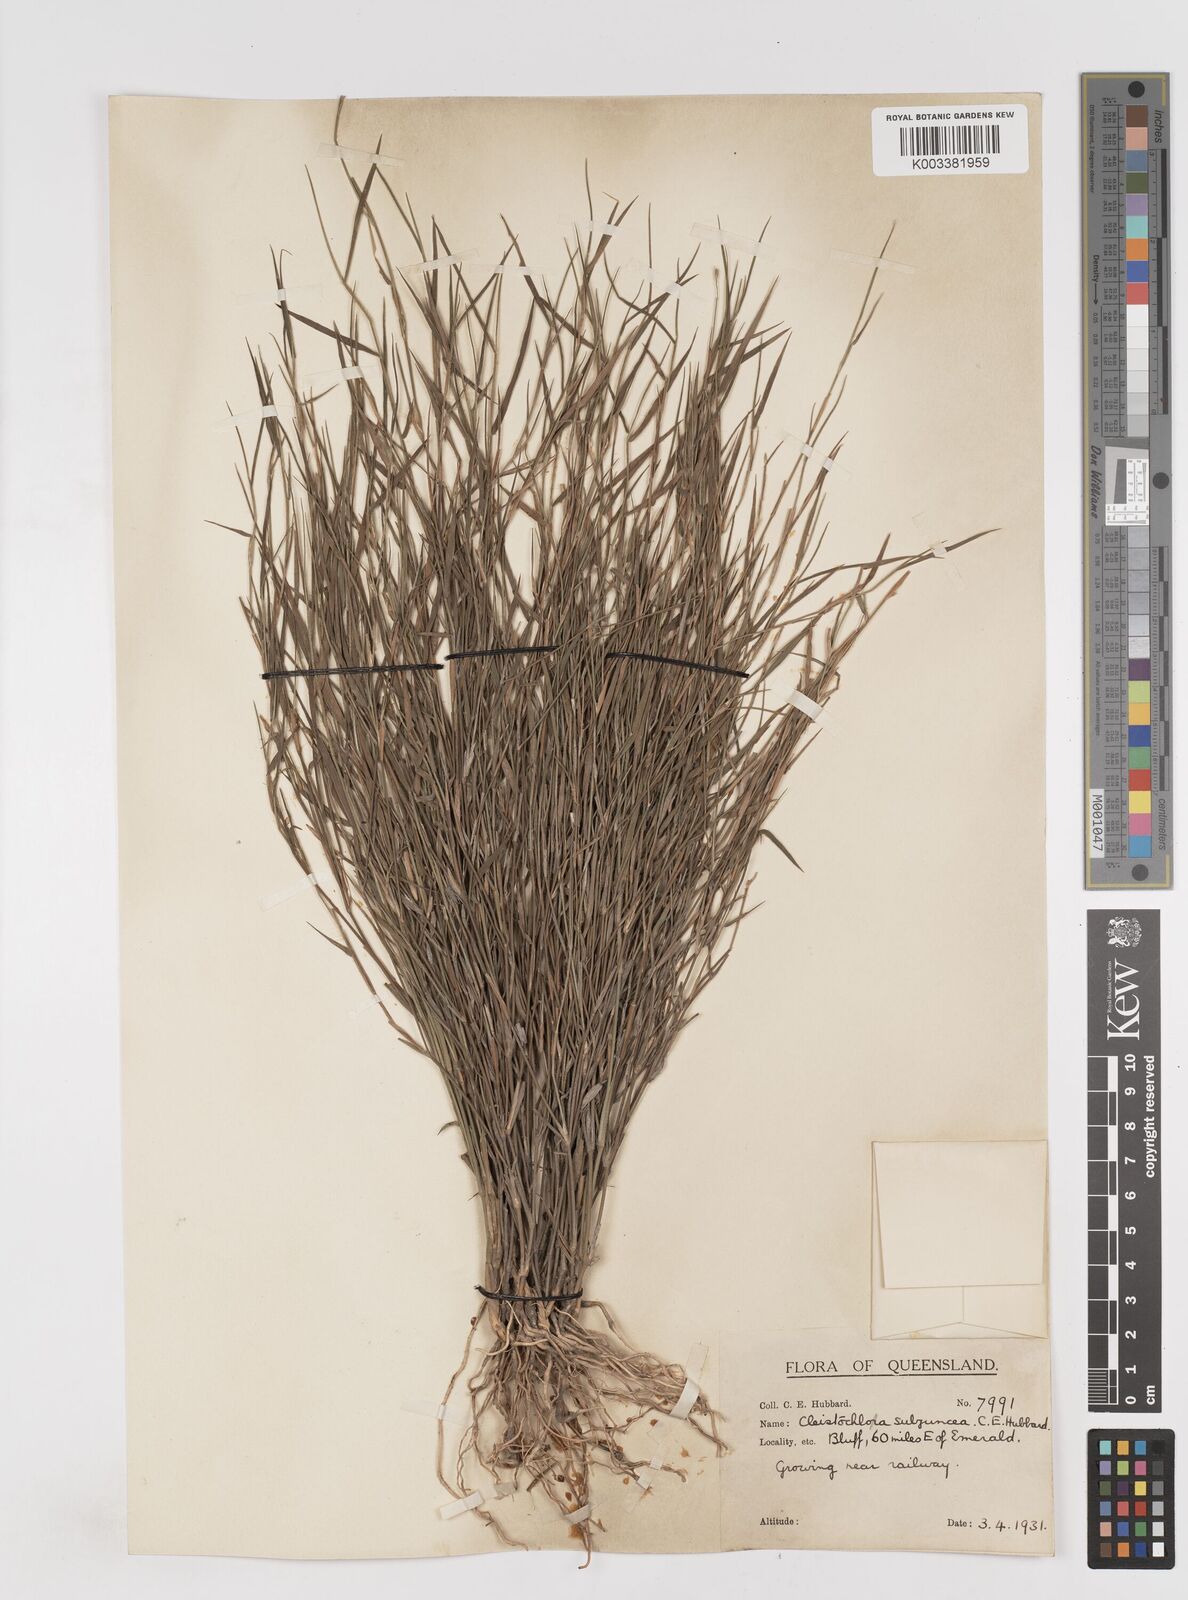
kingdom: Plantae
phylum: Tracheophyta
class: Liliopsida
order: Poales
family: Poaceae
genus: Cleistochloa
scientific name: Cleistochloa subjuncea
